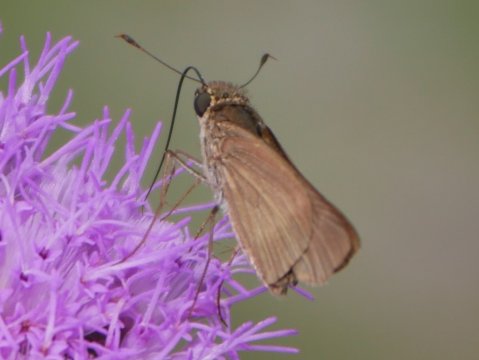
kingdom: Animalia
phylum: Arthropoda
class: Insecta
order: Lepidoptera
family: Hesperiidae
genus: Panoquina
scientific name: Panoquina ocola
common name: Ocola Skipper
